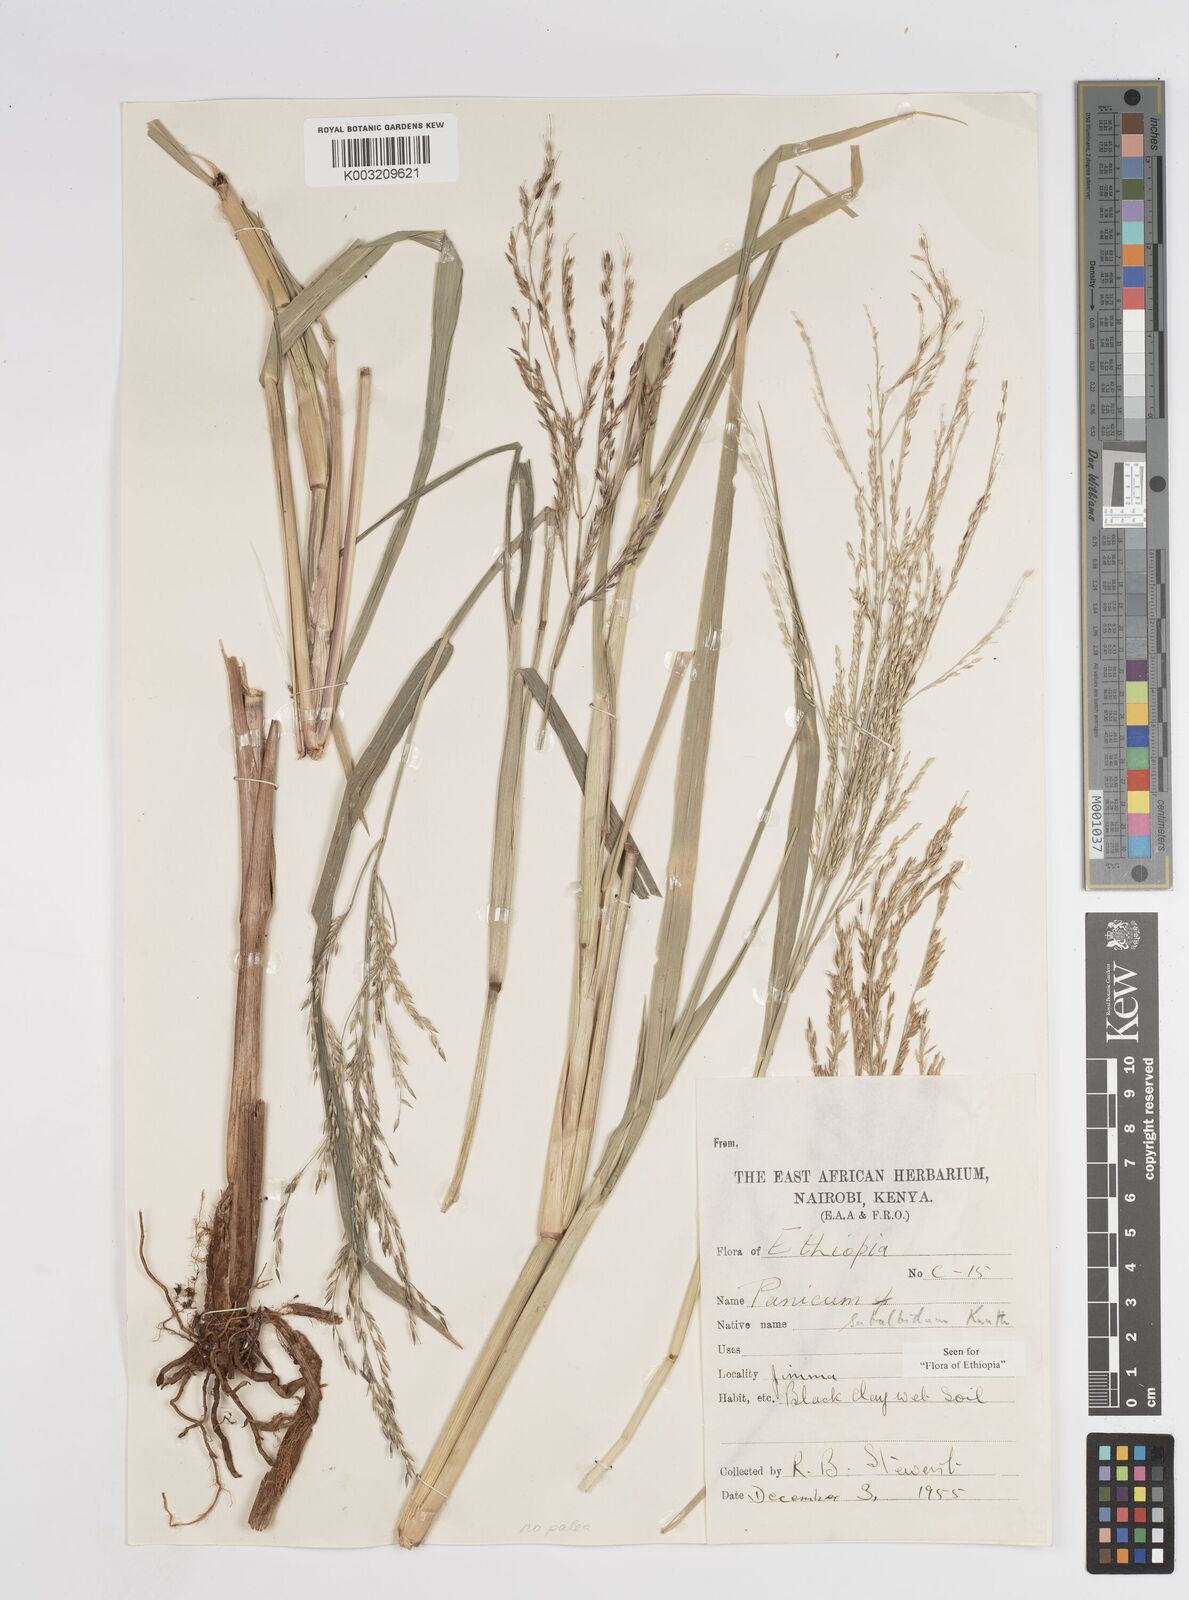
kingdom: Plantae
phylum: Tracheophyta
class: Liliopsida
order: Poales
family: Poaceae
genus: Panicum
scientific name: Panicum subalbidum
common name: Elbow buffalo grass
